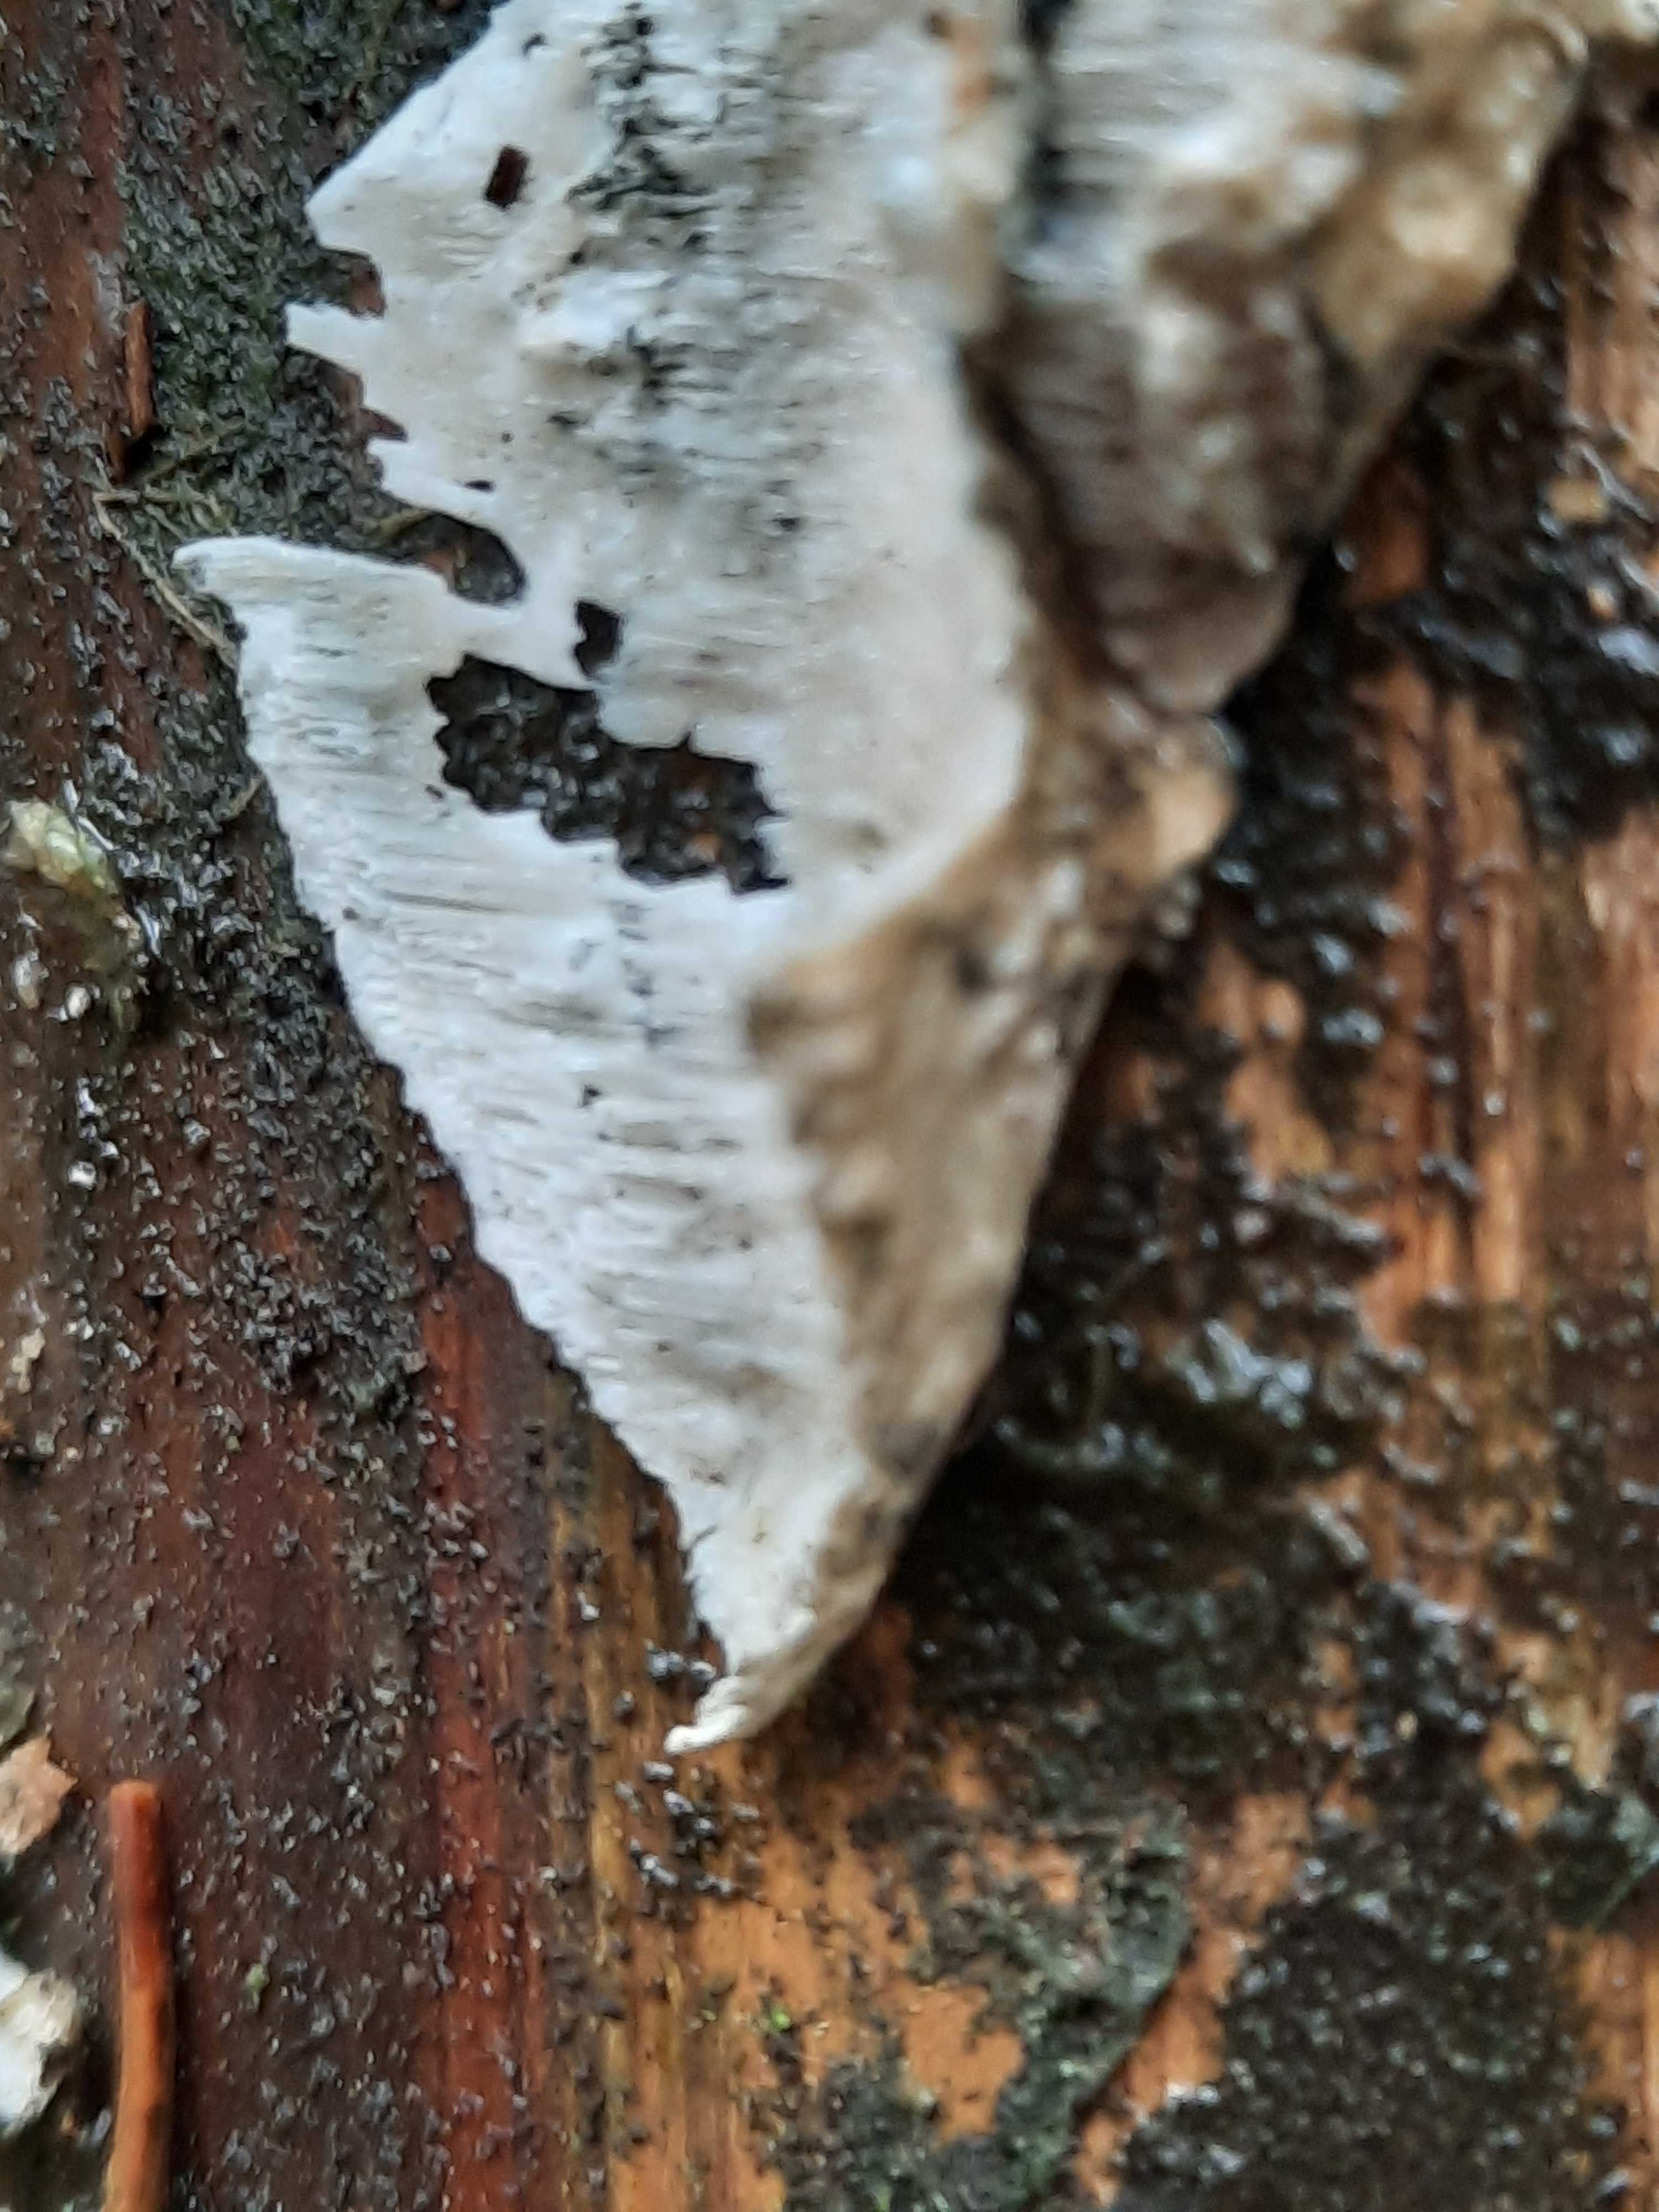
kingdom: Fungi
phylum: Basidiomycota
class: Agaricomycetes
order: Polyporales
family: Polyporaceae
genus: Cyanosporus
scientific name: Cyanosporus caesius
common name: blålig kødporesvamp
